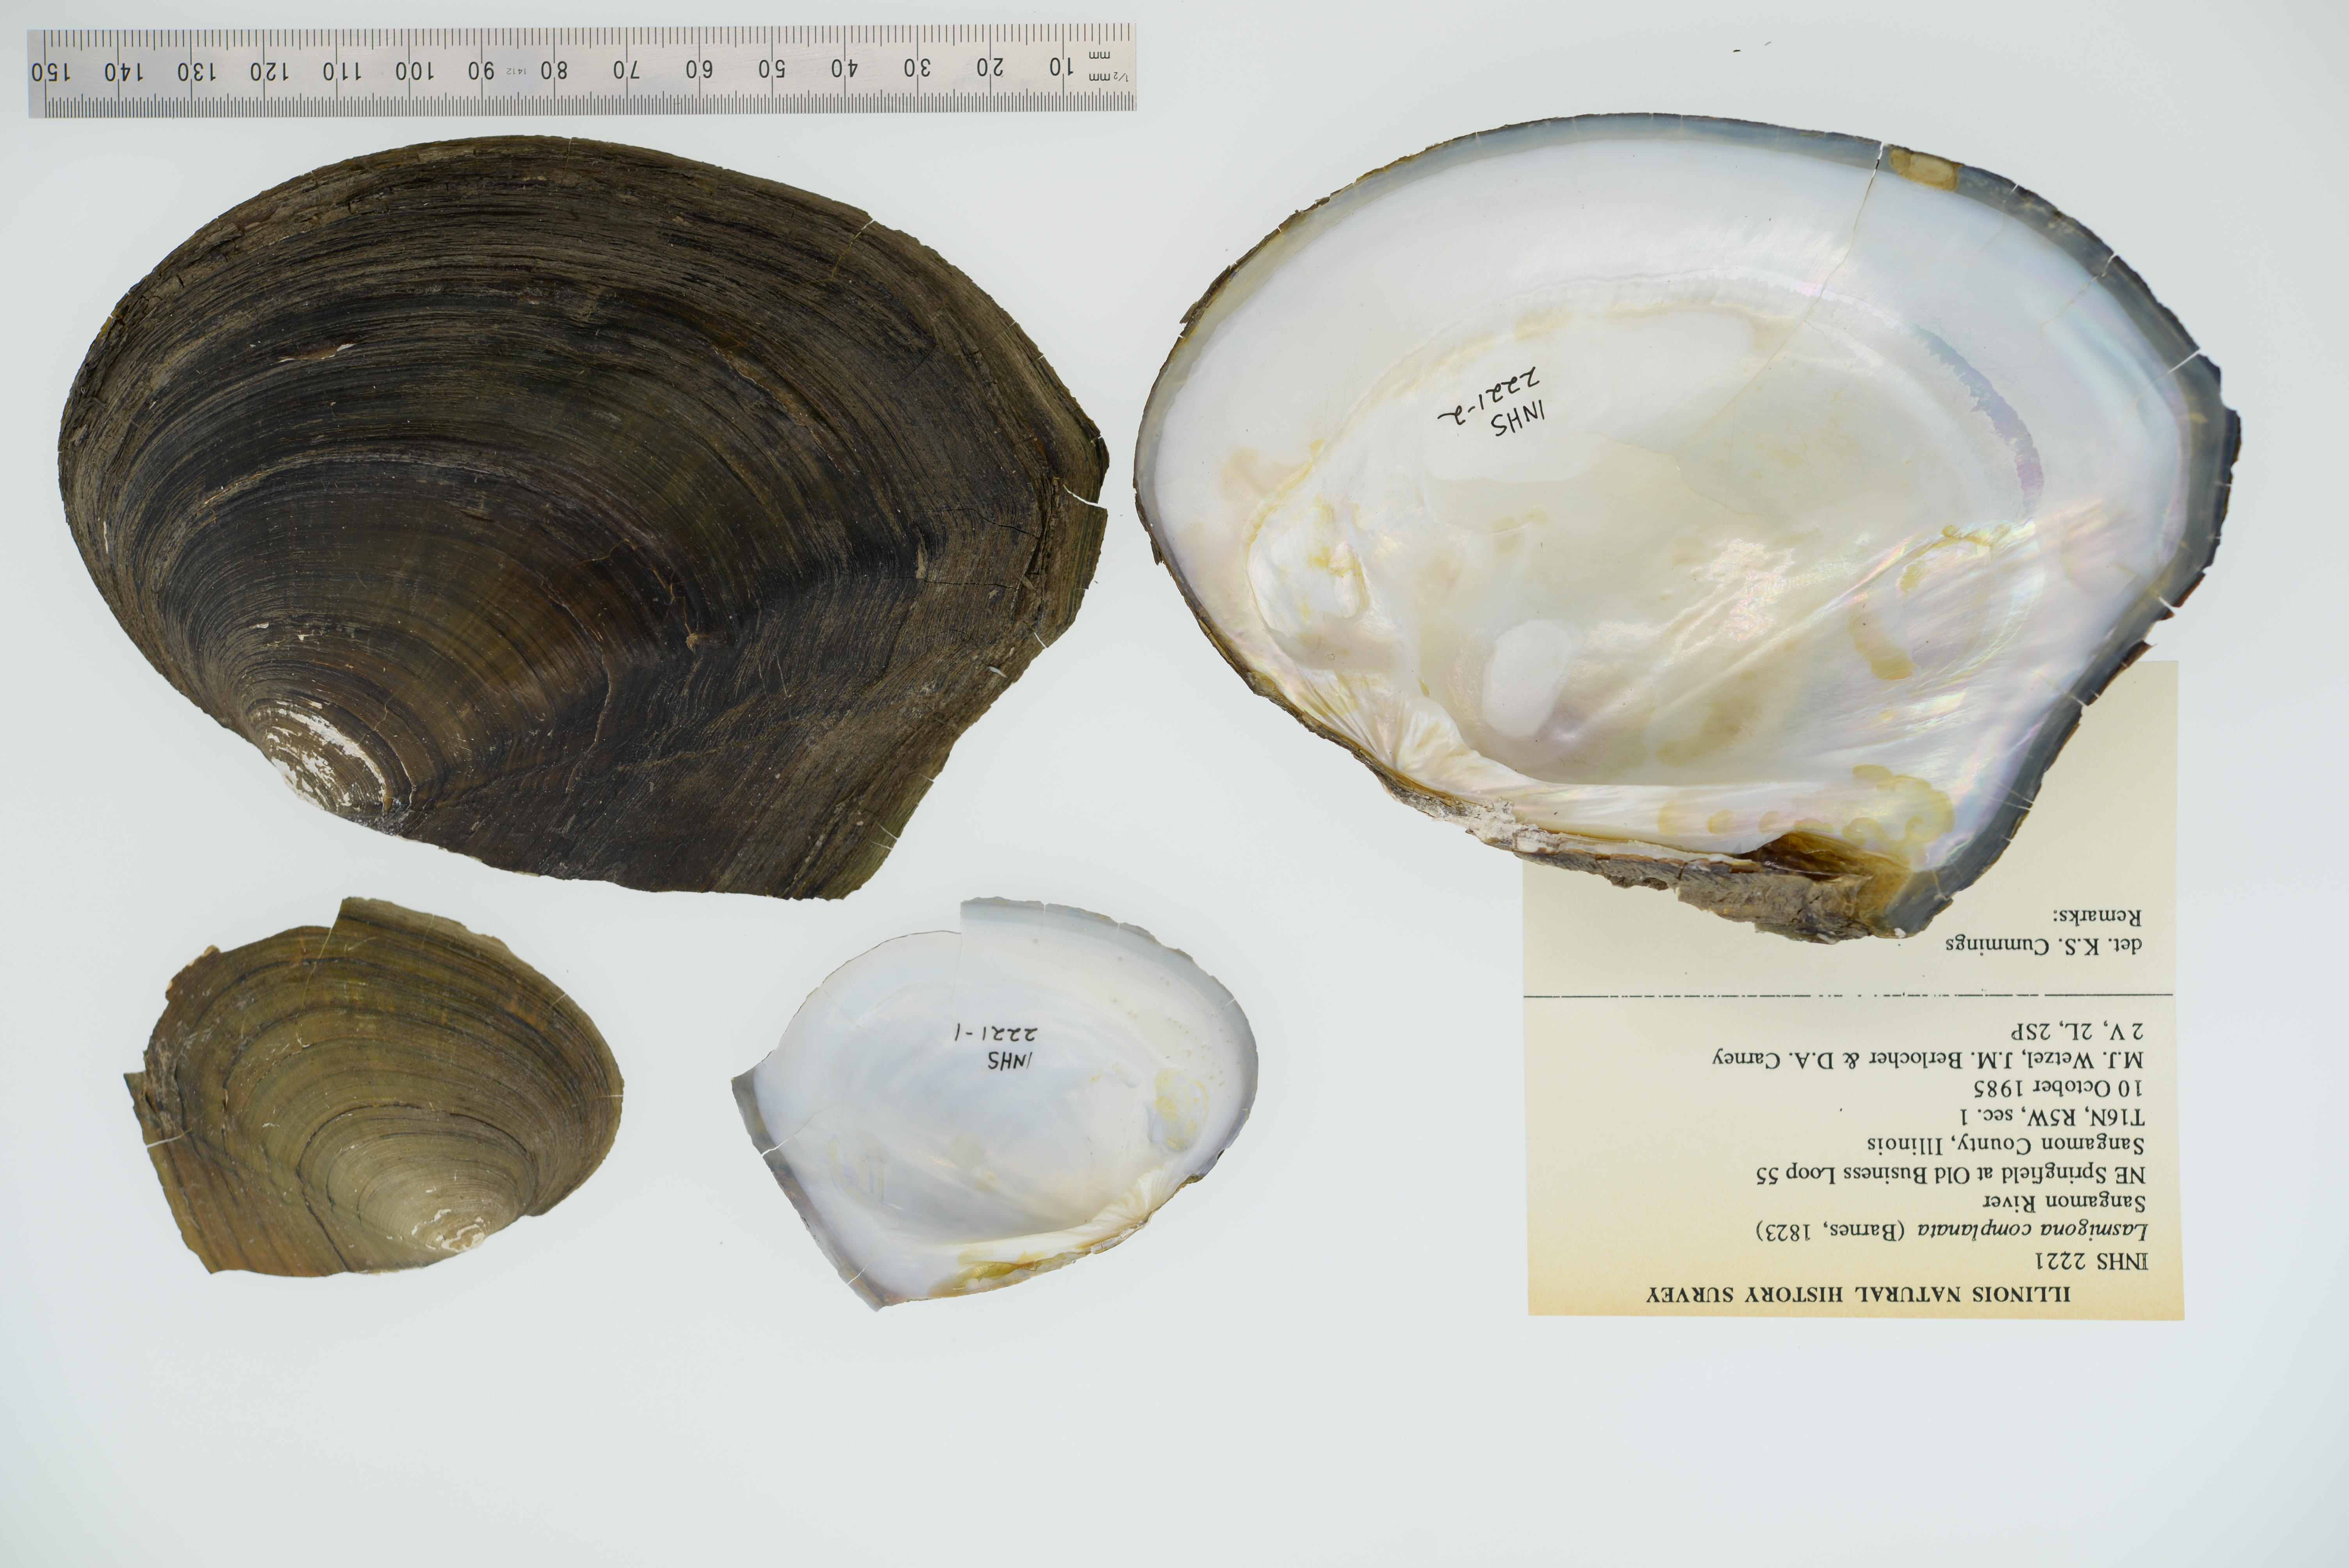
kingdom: Animalia
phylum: Mollusca
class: Bivalvia
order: Unionida
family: Unionidae
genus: Lasmigona
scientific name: Lasmigona complanata
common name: White heelsplitter
